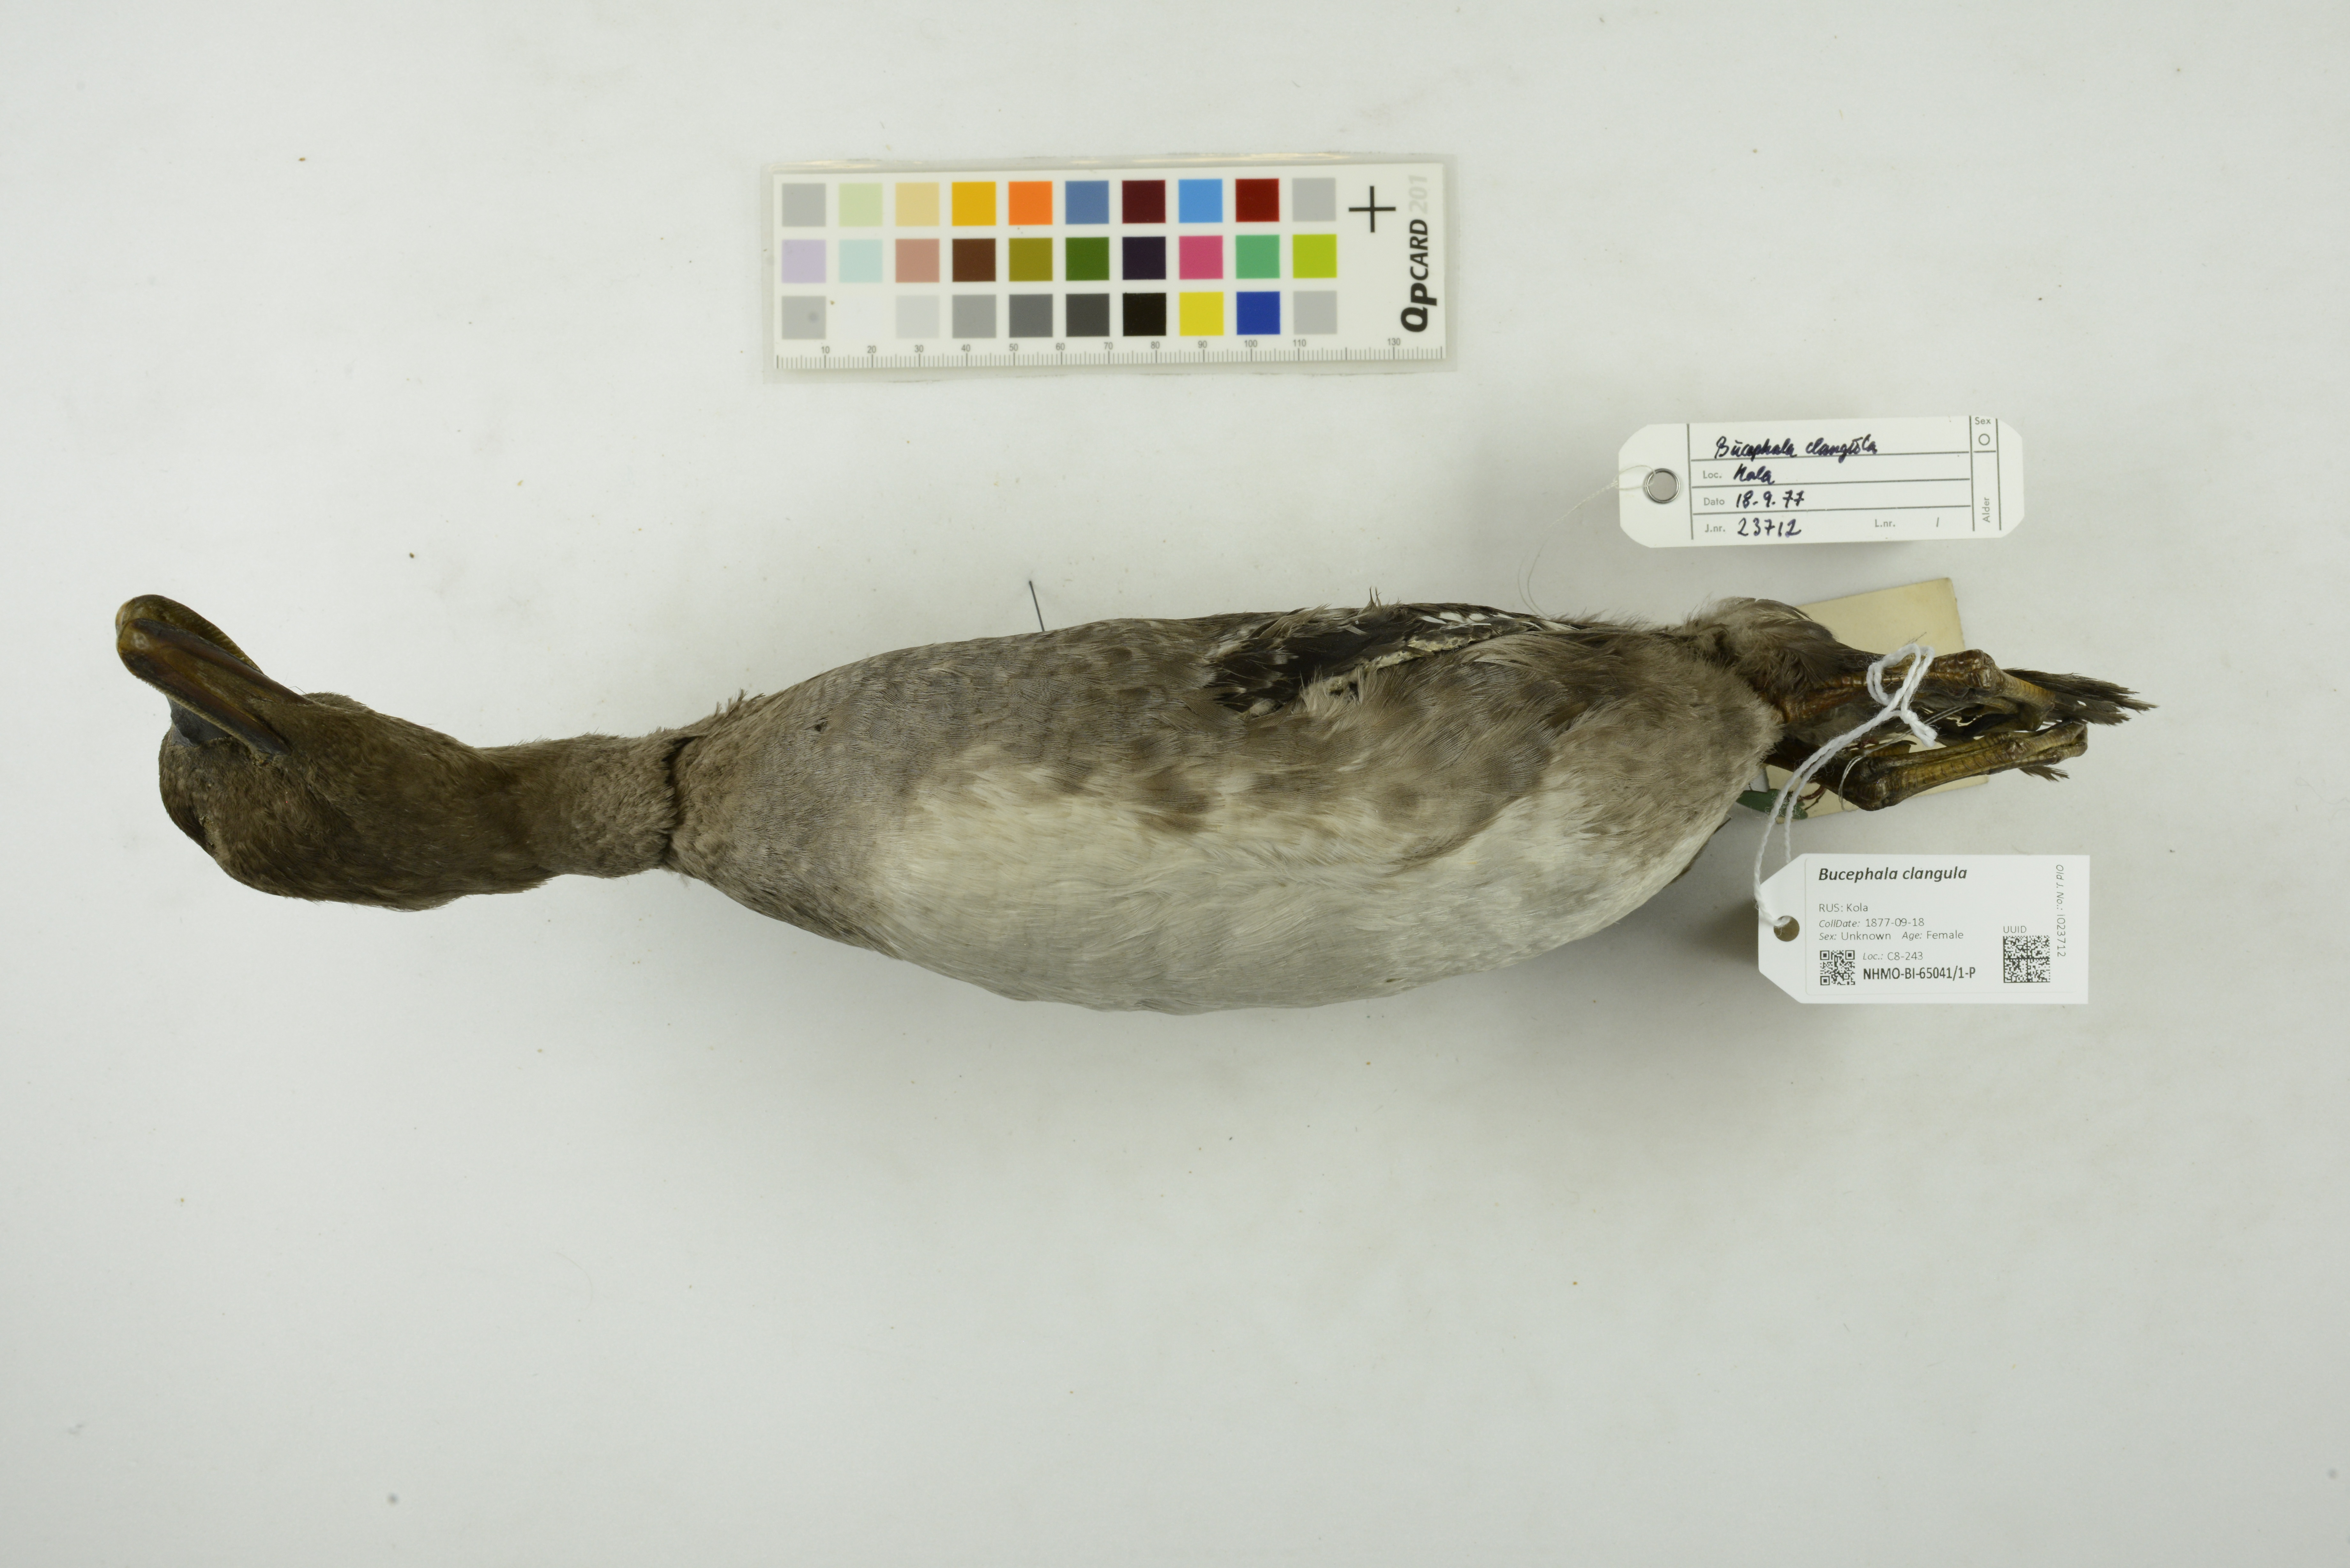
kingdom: Animalia
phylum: Chordata
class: Aves
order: Anseriformes
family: Anatidae
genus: Bucephala
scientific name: Bucephala clangula
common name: Common goldeneye
